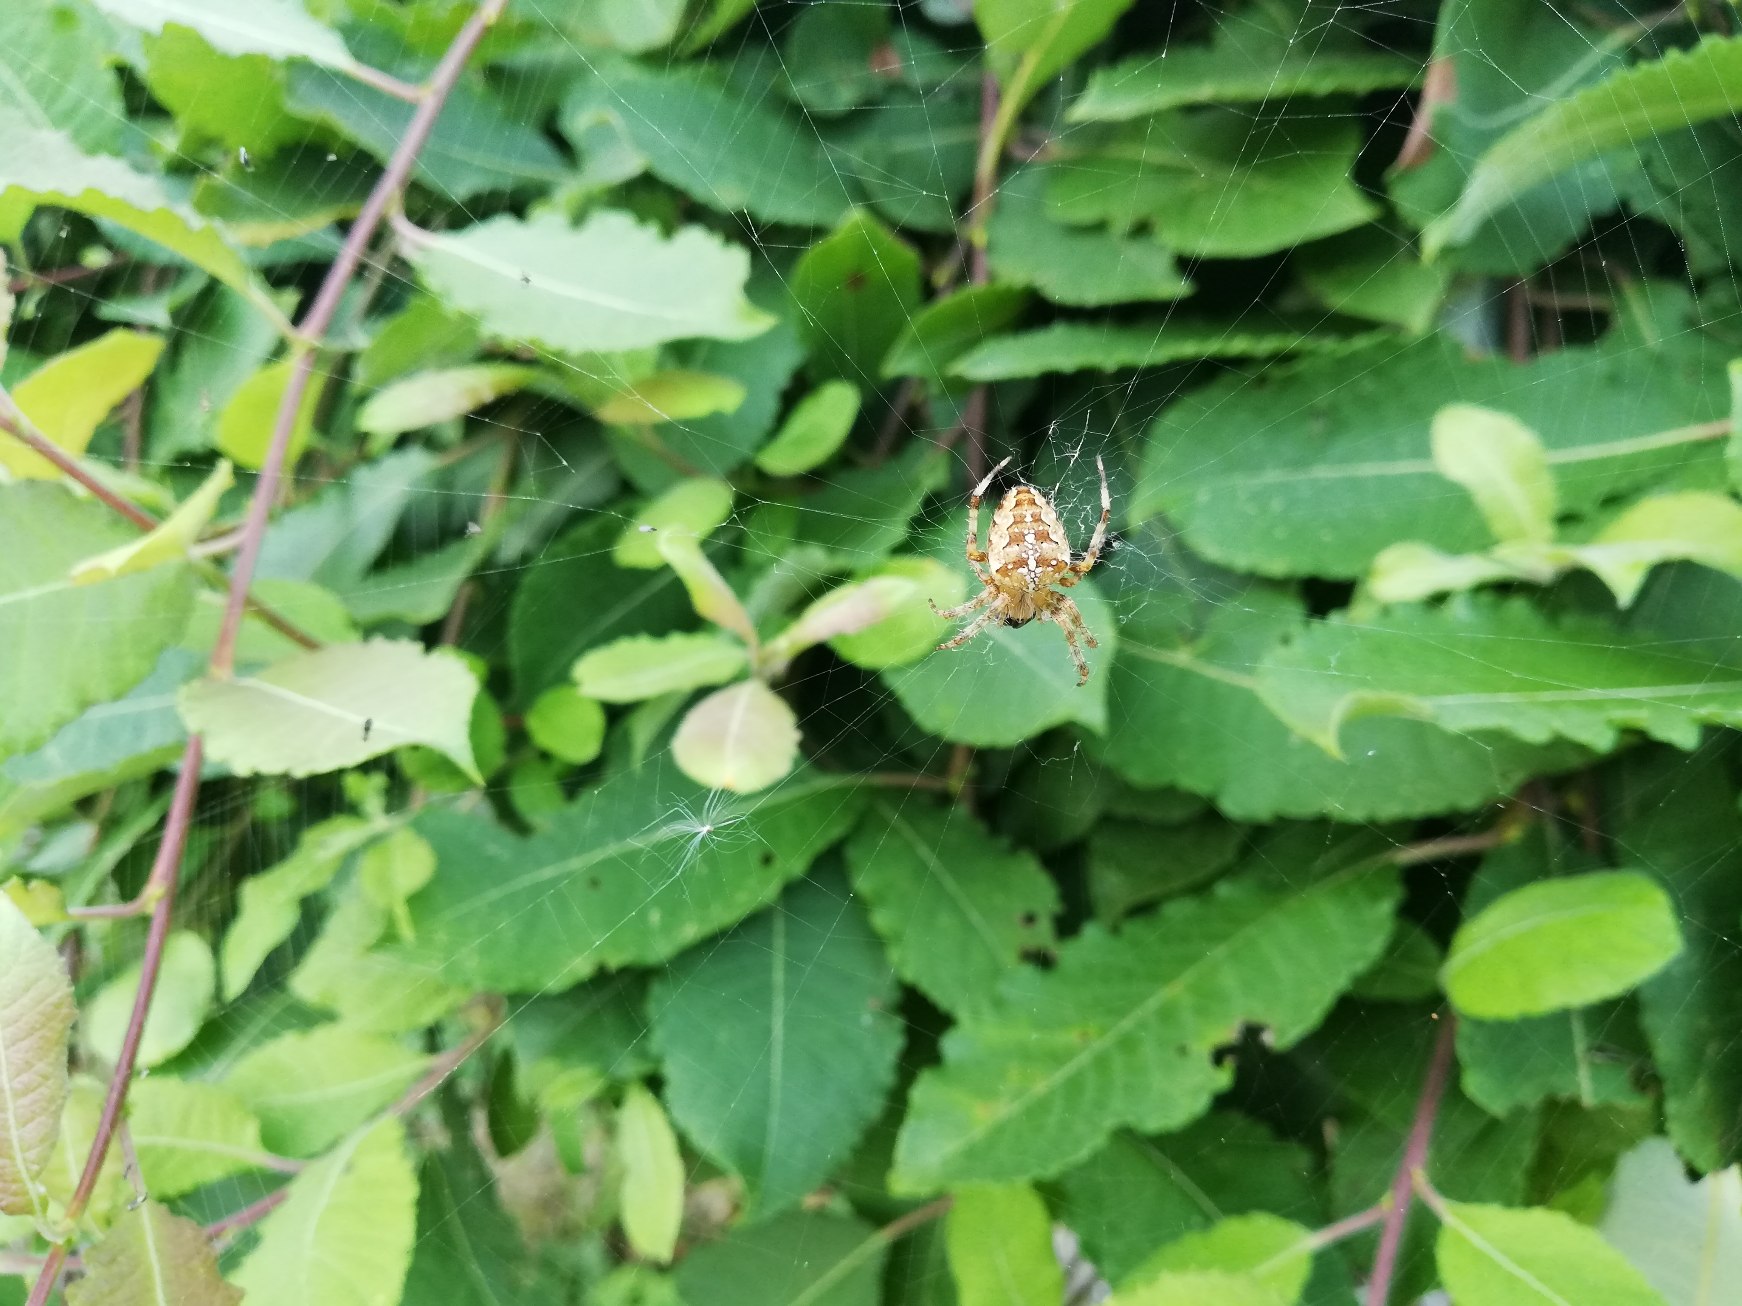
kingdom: Animalia
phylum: Arthropoda
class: Arachnida
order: Araneae
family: Araneidae
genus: Araneus
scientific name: Araneus diadematus
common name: Korsedderkop
